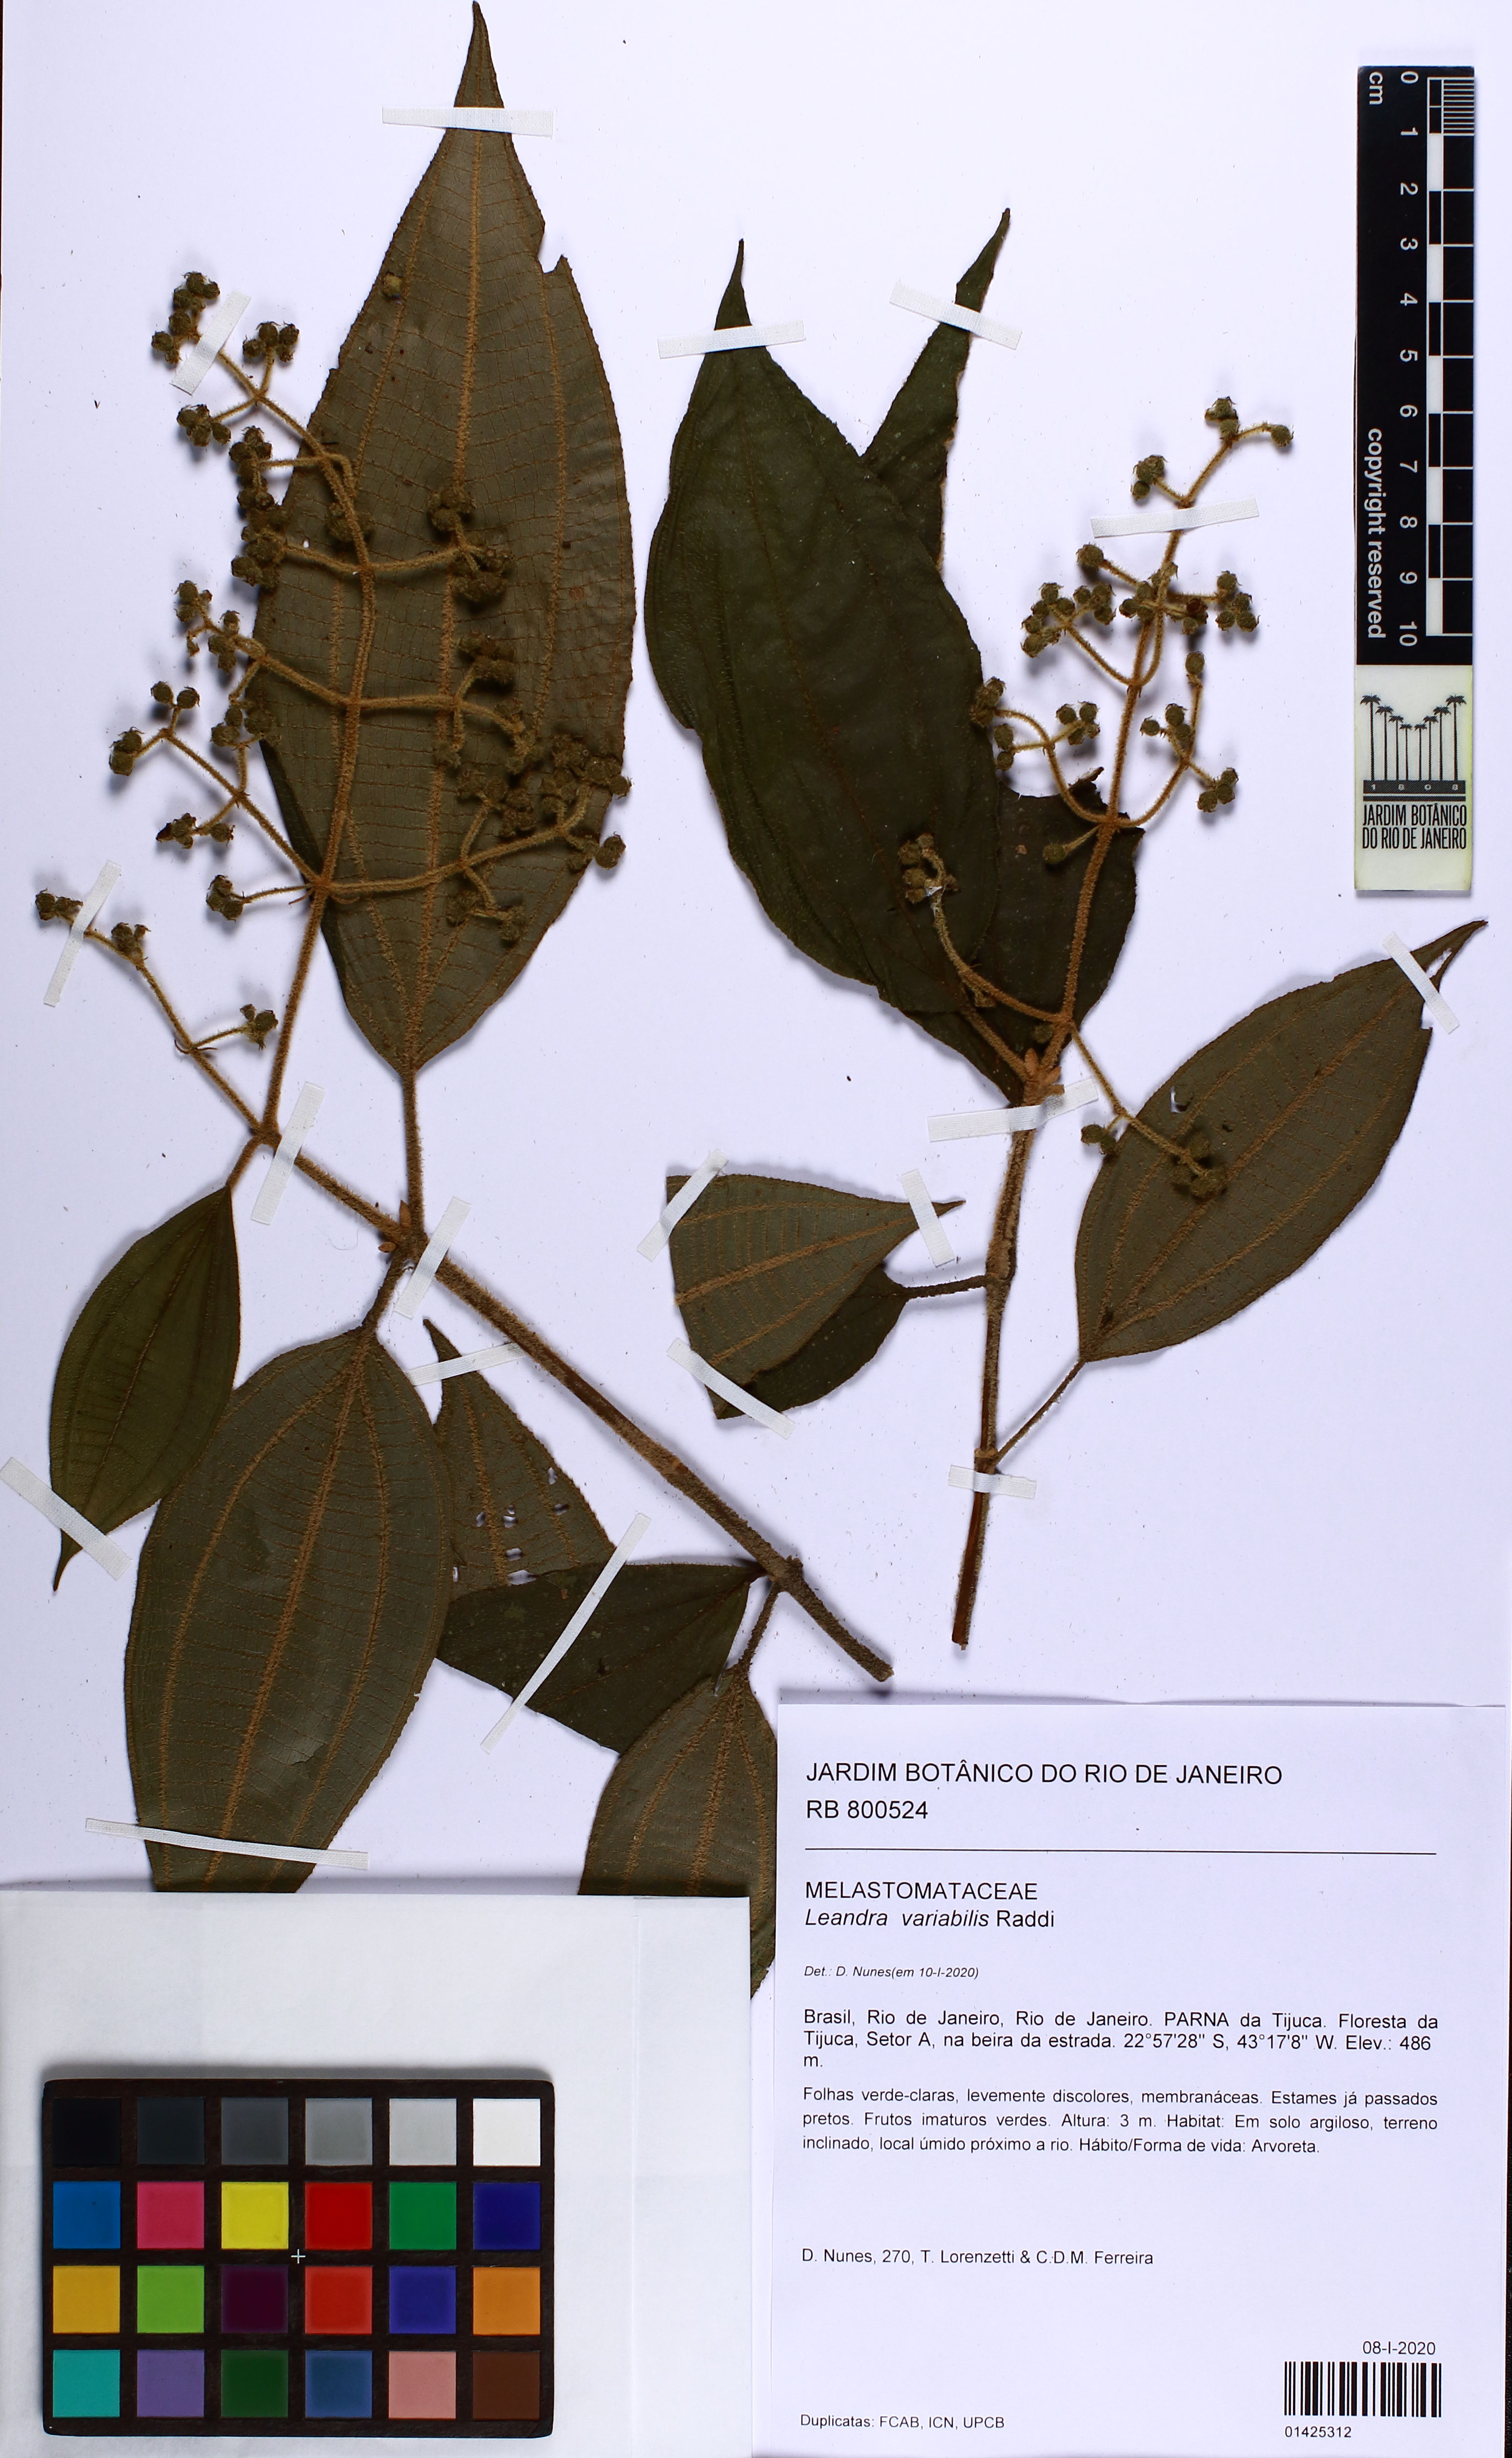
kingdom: Plantae
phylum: Tracheophyta
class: Magnoliopsida
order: Myrtales
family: Melastomataceae
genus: Miconia
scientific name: Miconia dasytricha
